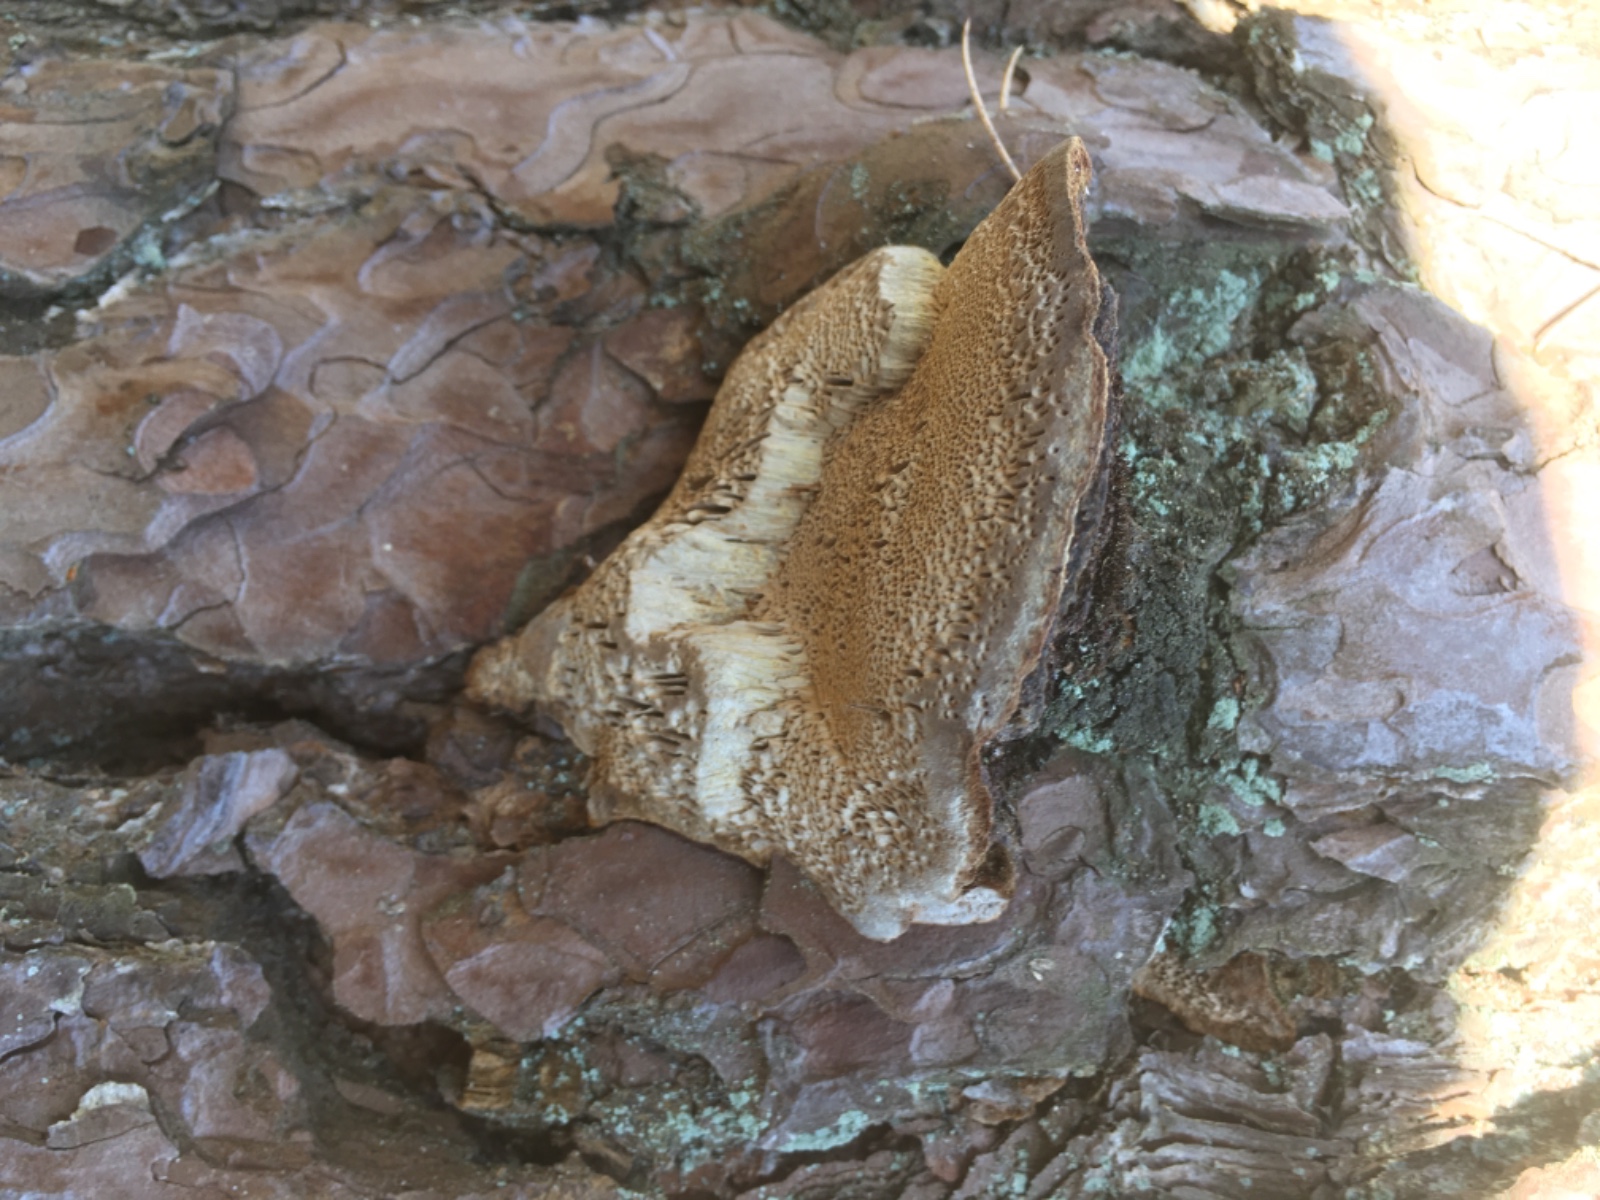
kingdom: Fungi
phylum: Basidiomycota
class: Agaricomycetes
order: Hymenochaetales
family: Hymenochaetaceae
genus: Porodaedalea
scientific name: Porodaedalea pini
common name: fyrre-ildporesvamp
